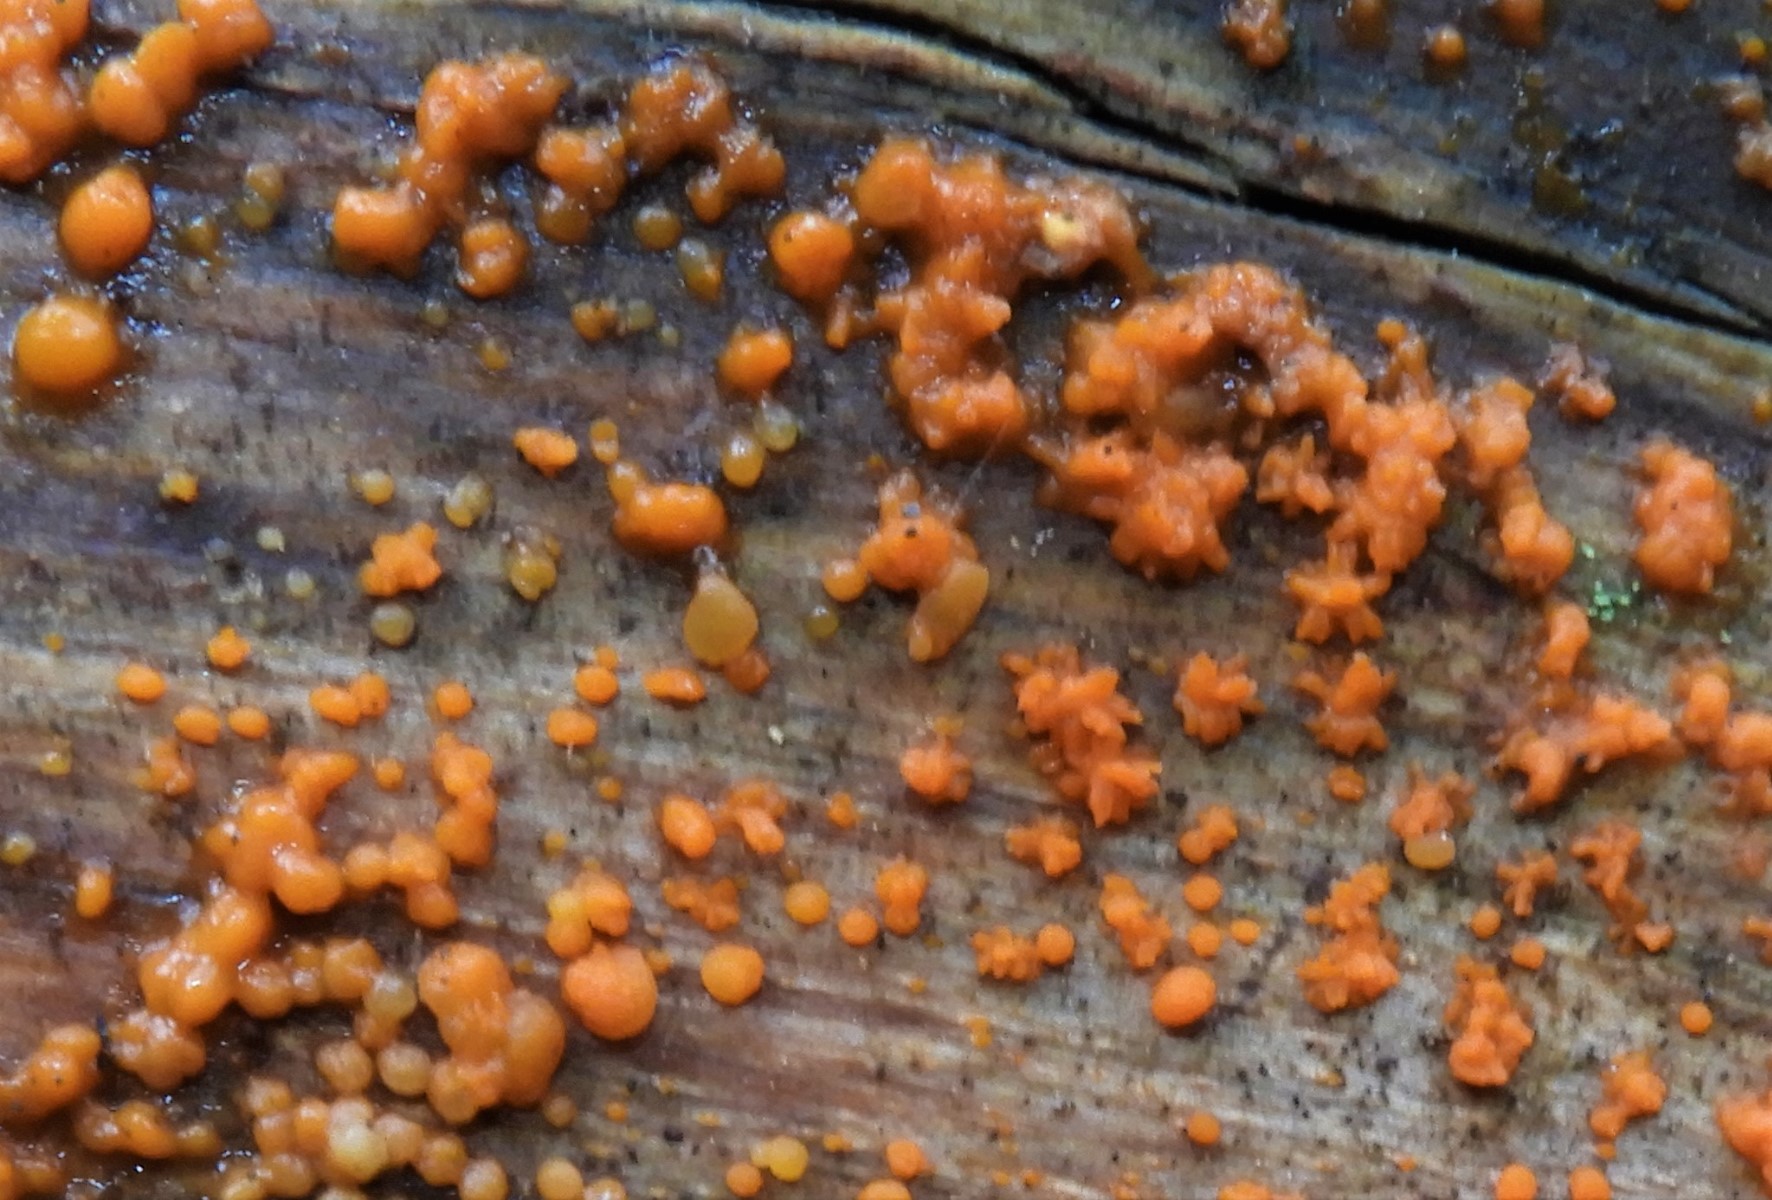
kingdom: Fungi
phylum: Basidiomycota
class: Dacrymycetes
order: Dacrymycetales
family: Dacrymycetaceae
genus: Dacrymyces
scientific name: Dacrymyces stillatus
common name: almindelig tåresvamp
